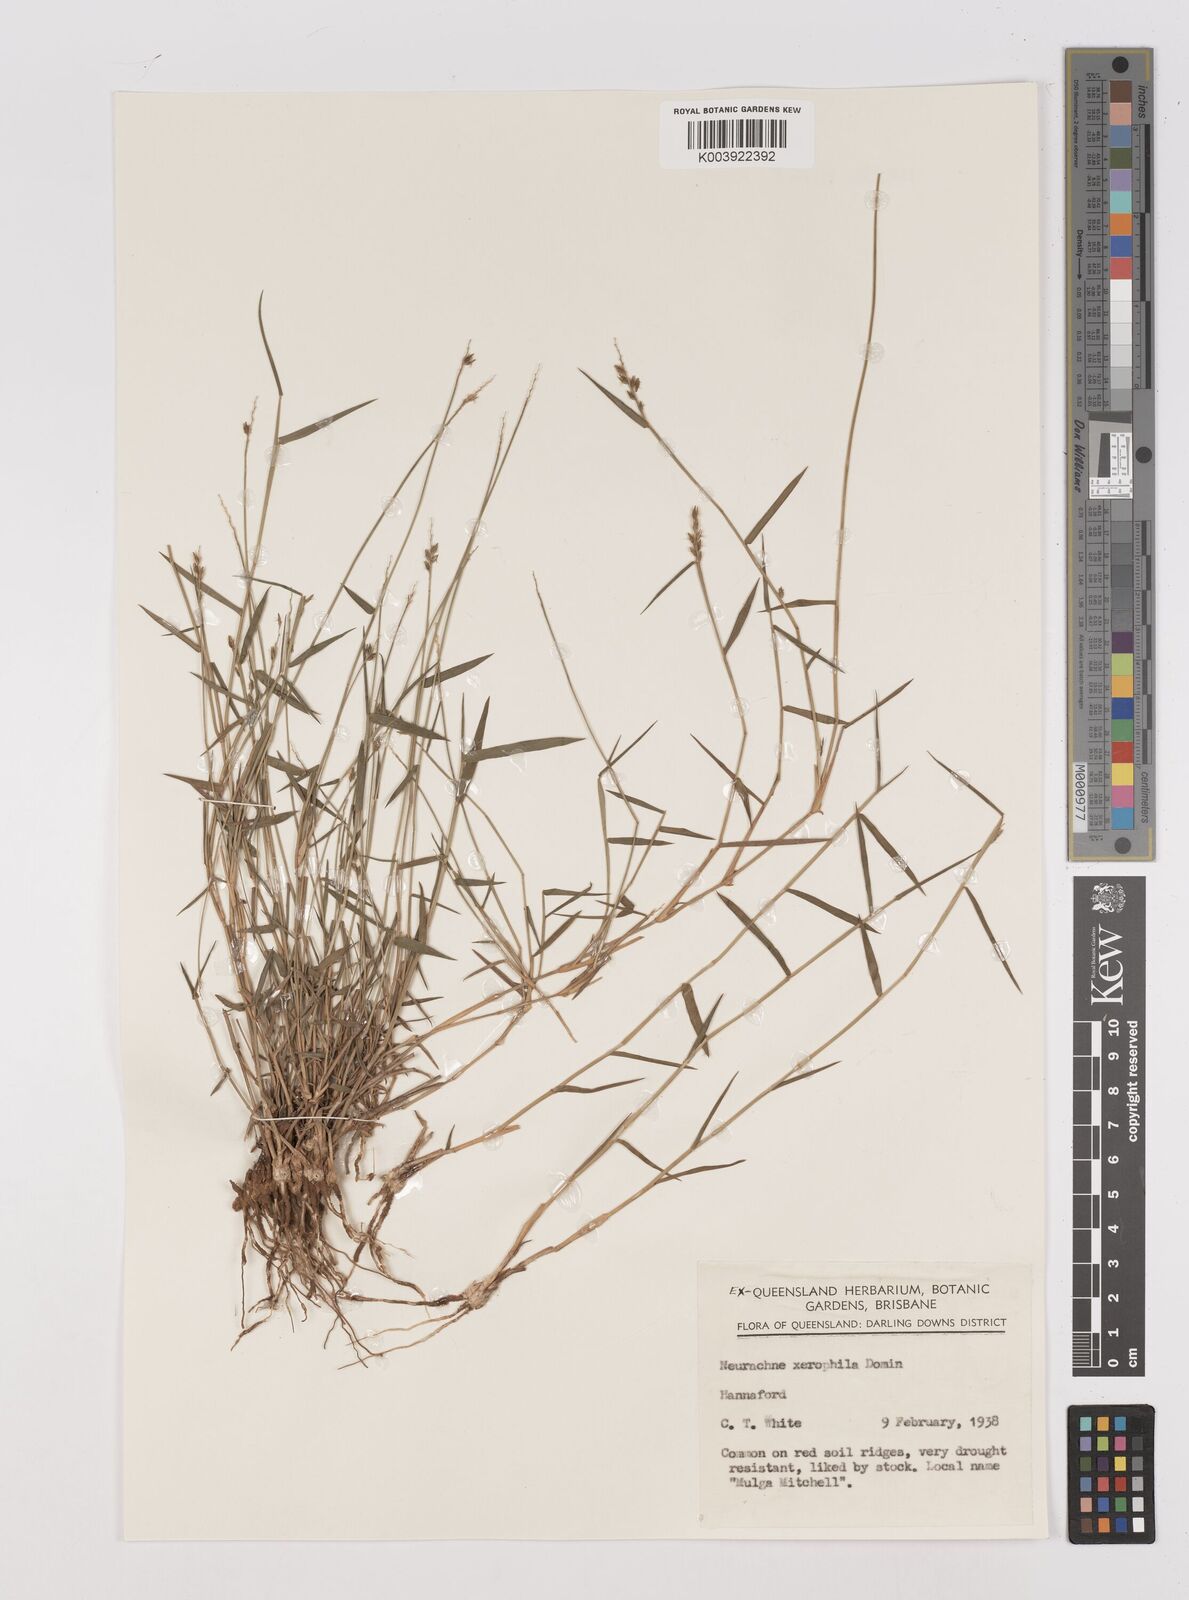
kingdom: Plantae
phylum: Tracheophyta
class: Liliopsida
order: Poales
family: Poaceae
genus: Thyridolepis
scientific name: Thyridolepis xerophila
